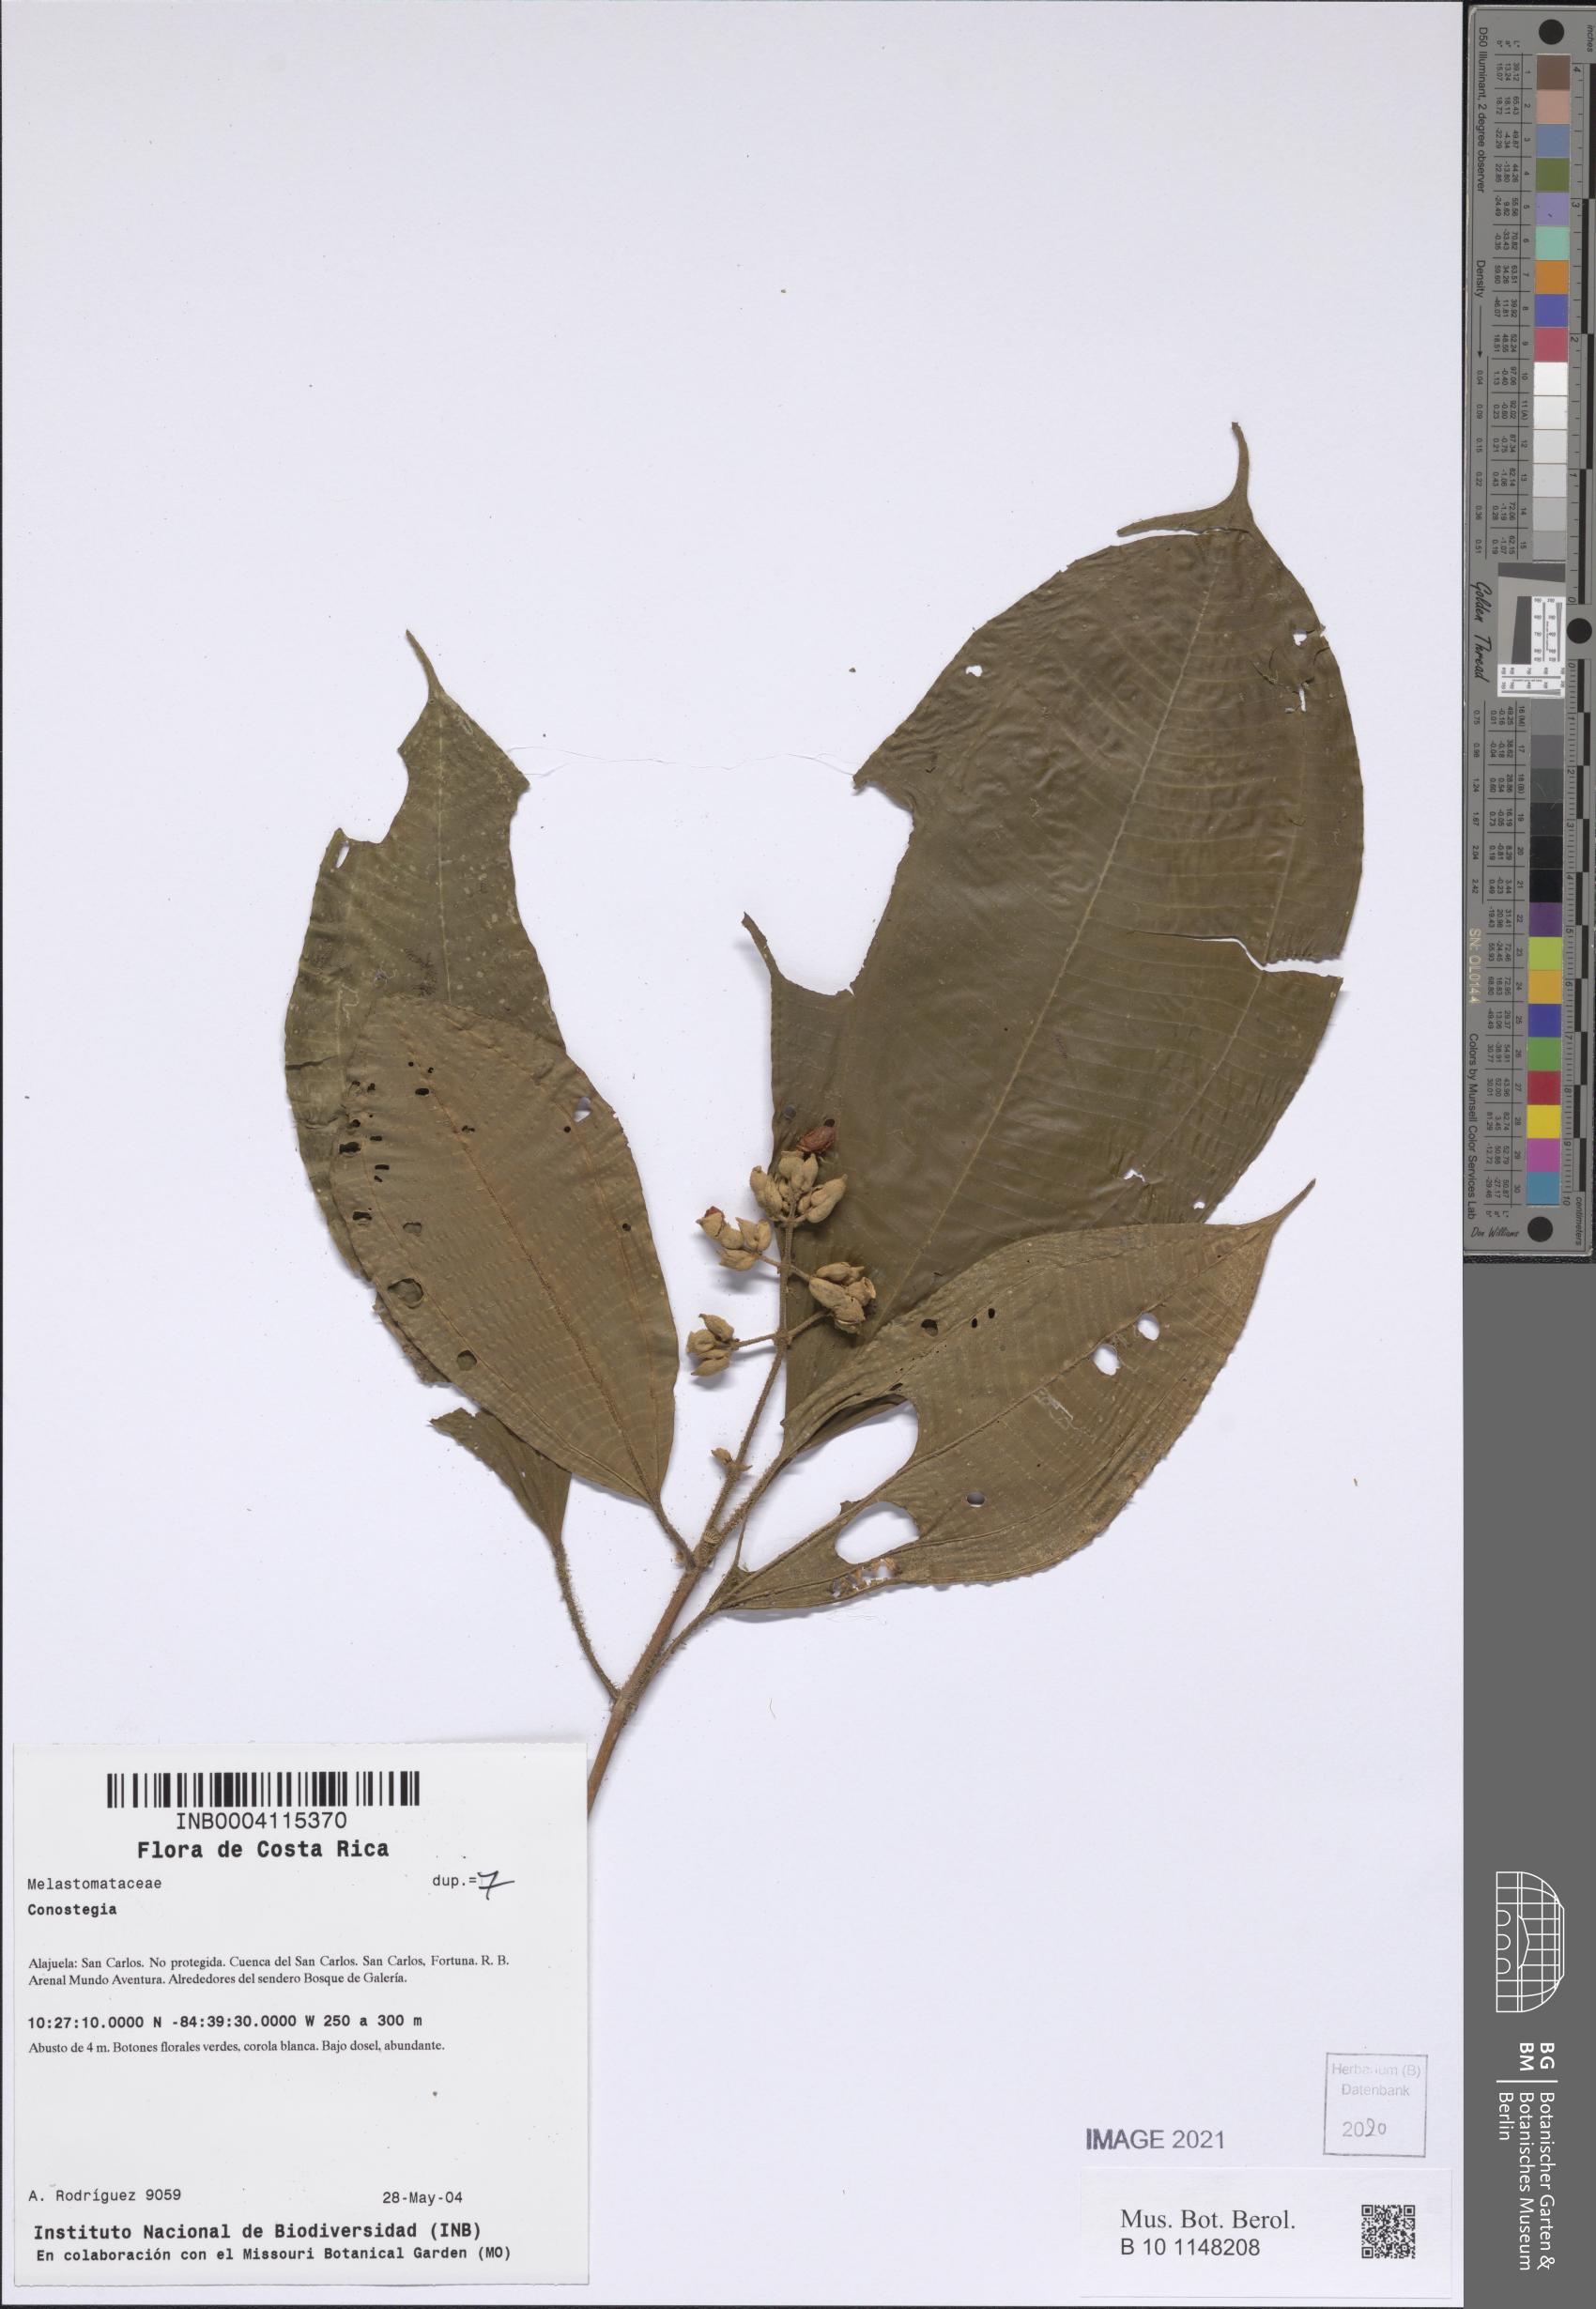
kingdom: Plantae
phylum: Tracheophyta
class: Magnoliopsida
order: Myrtales
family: Melastomataceae
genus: Miconia
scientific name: Miconia
